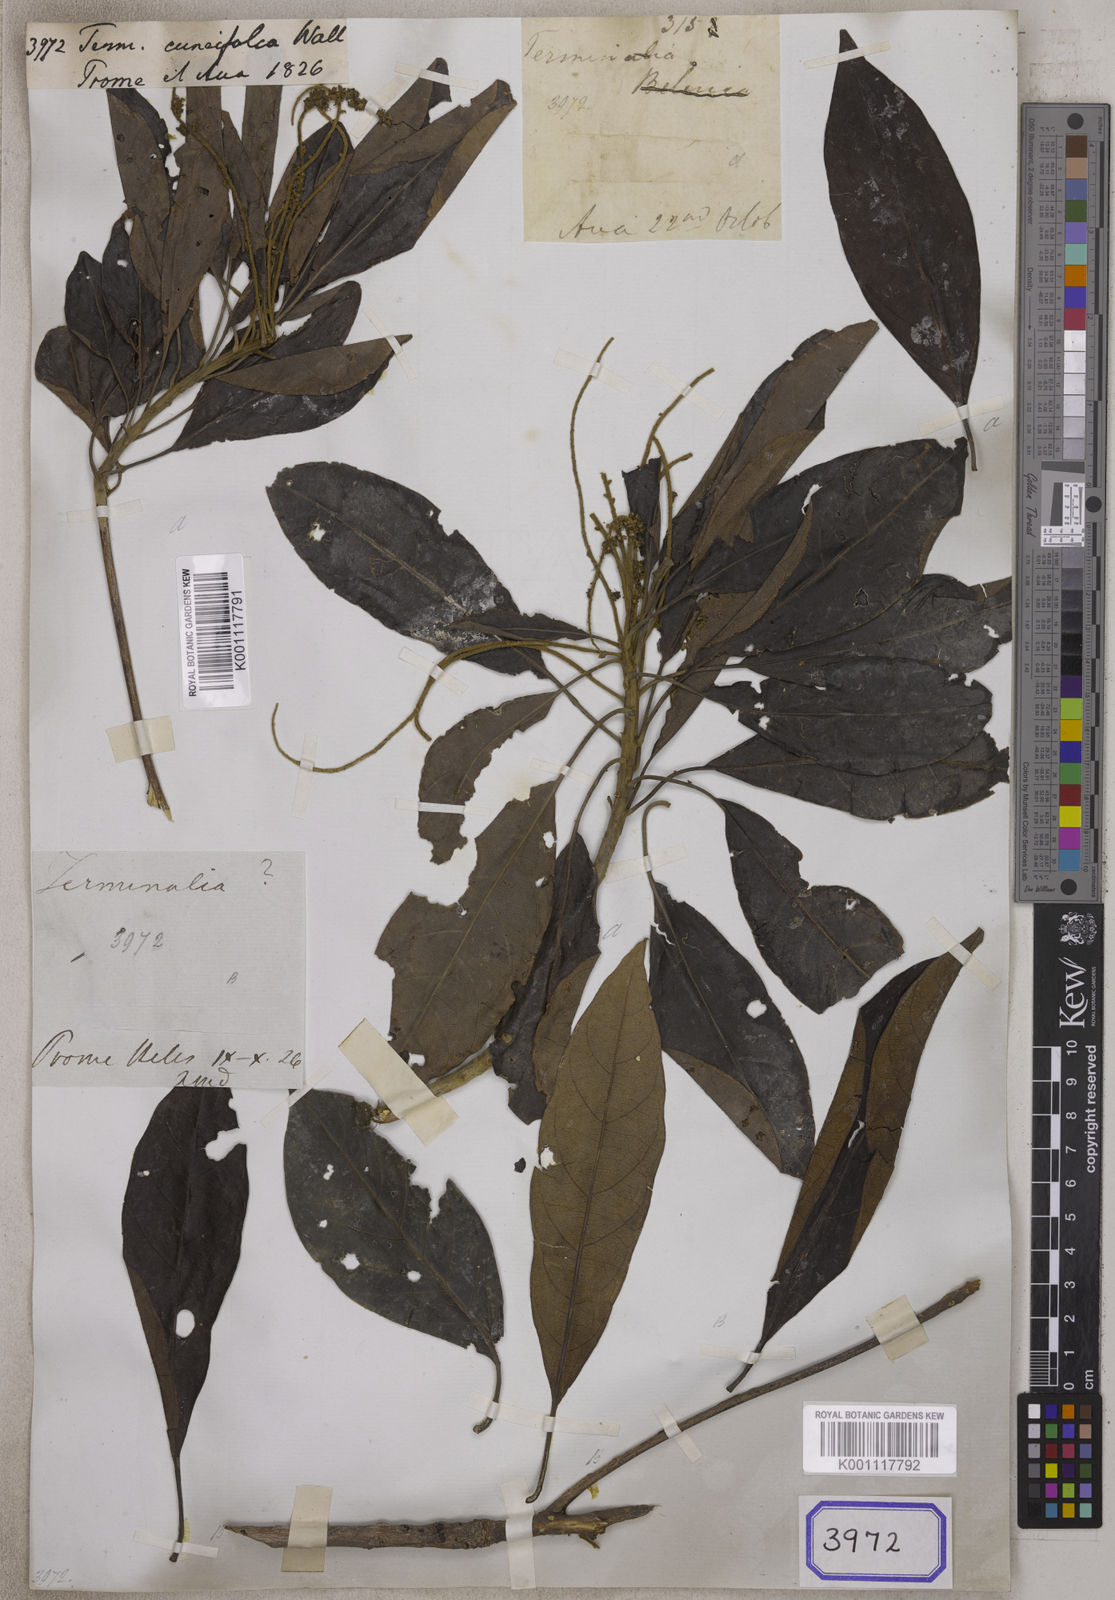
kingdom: Plantae
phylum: Tracheophyta
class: Magnoliopsida
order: Myrtales
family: Combretaceae
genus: Terminalia
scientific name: Terminalia cuneifolia
